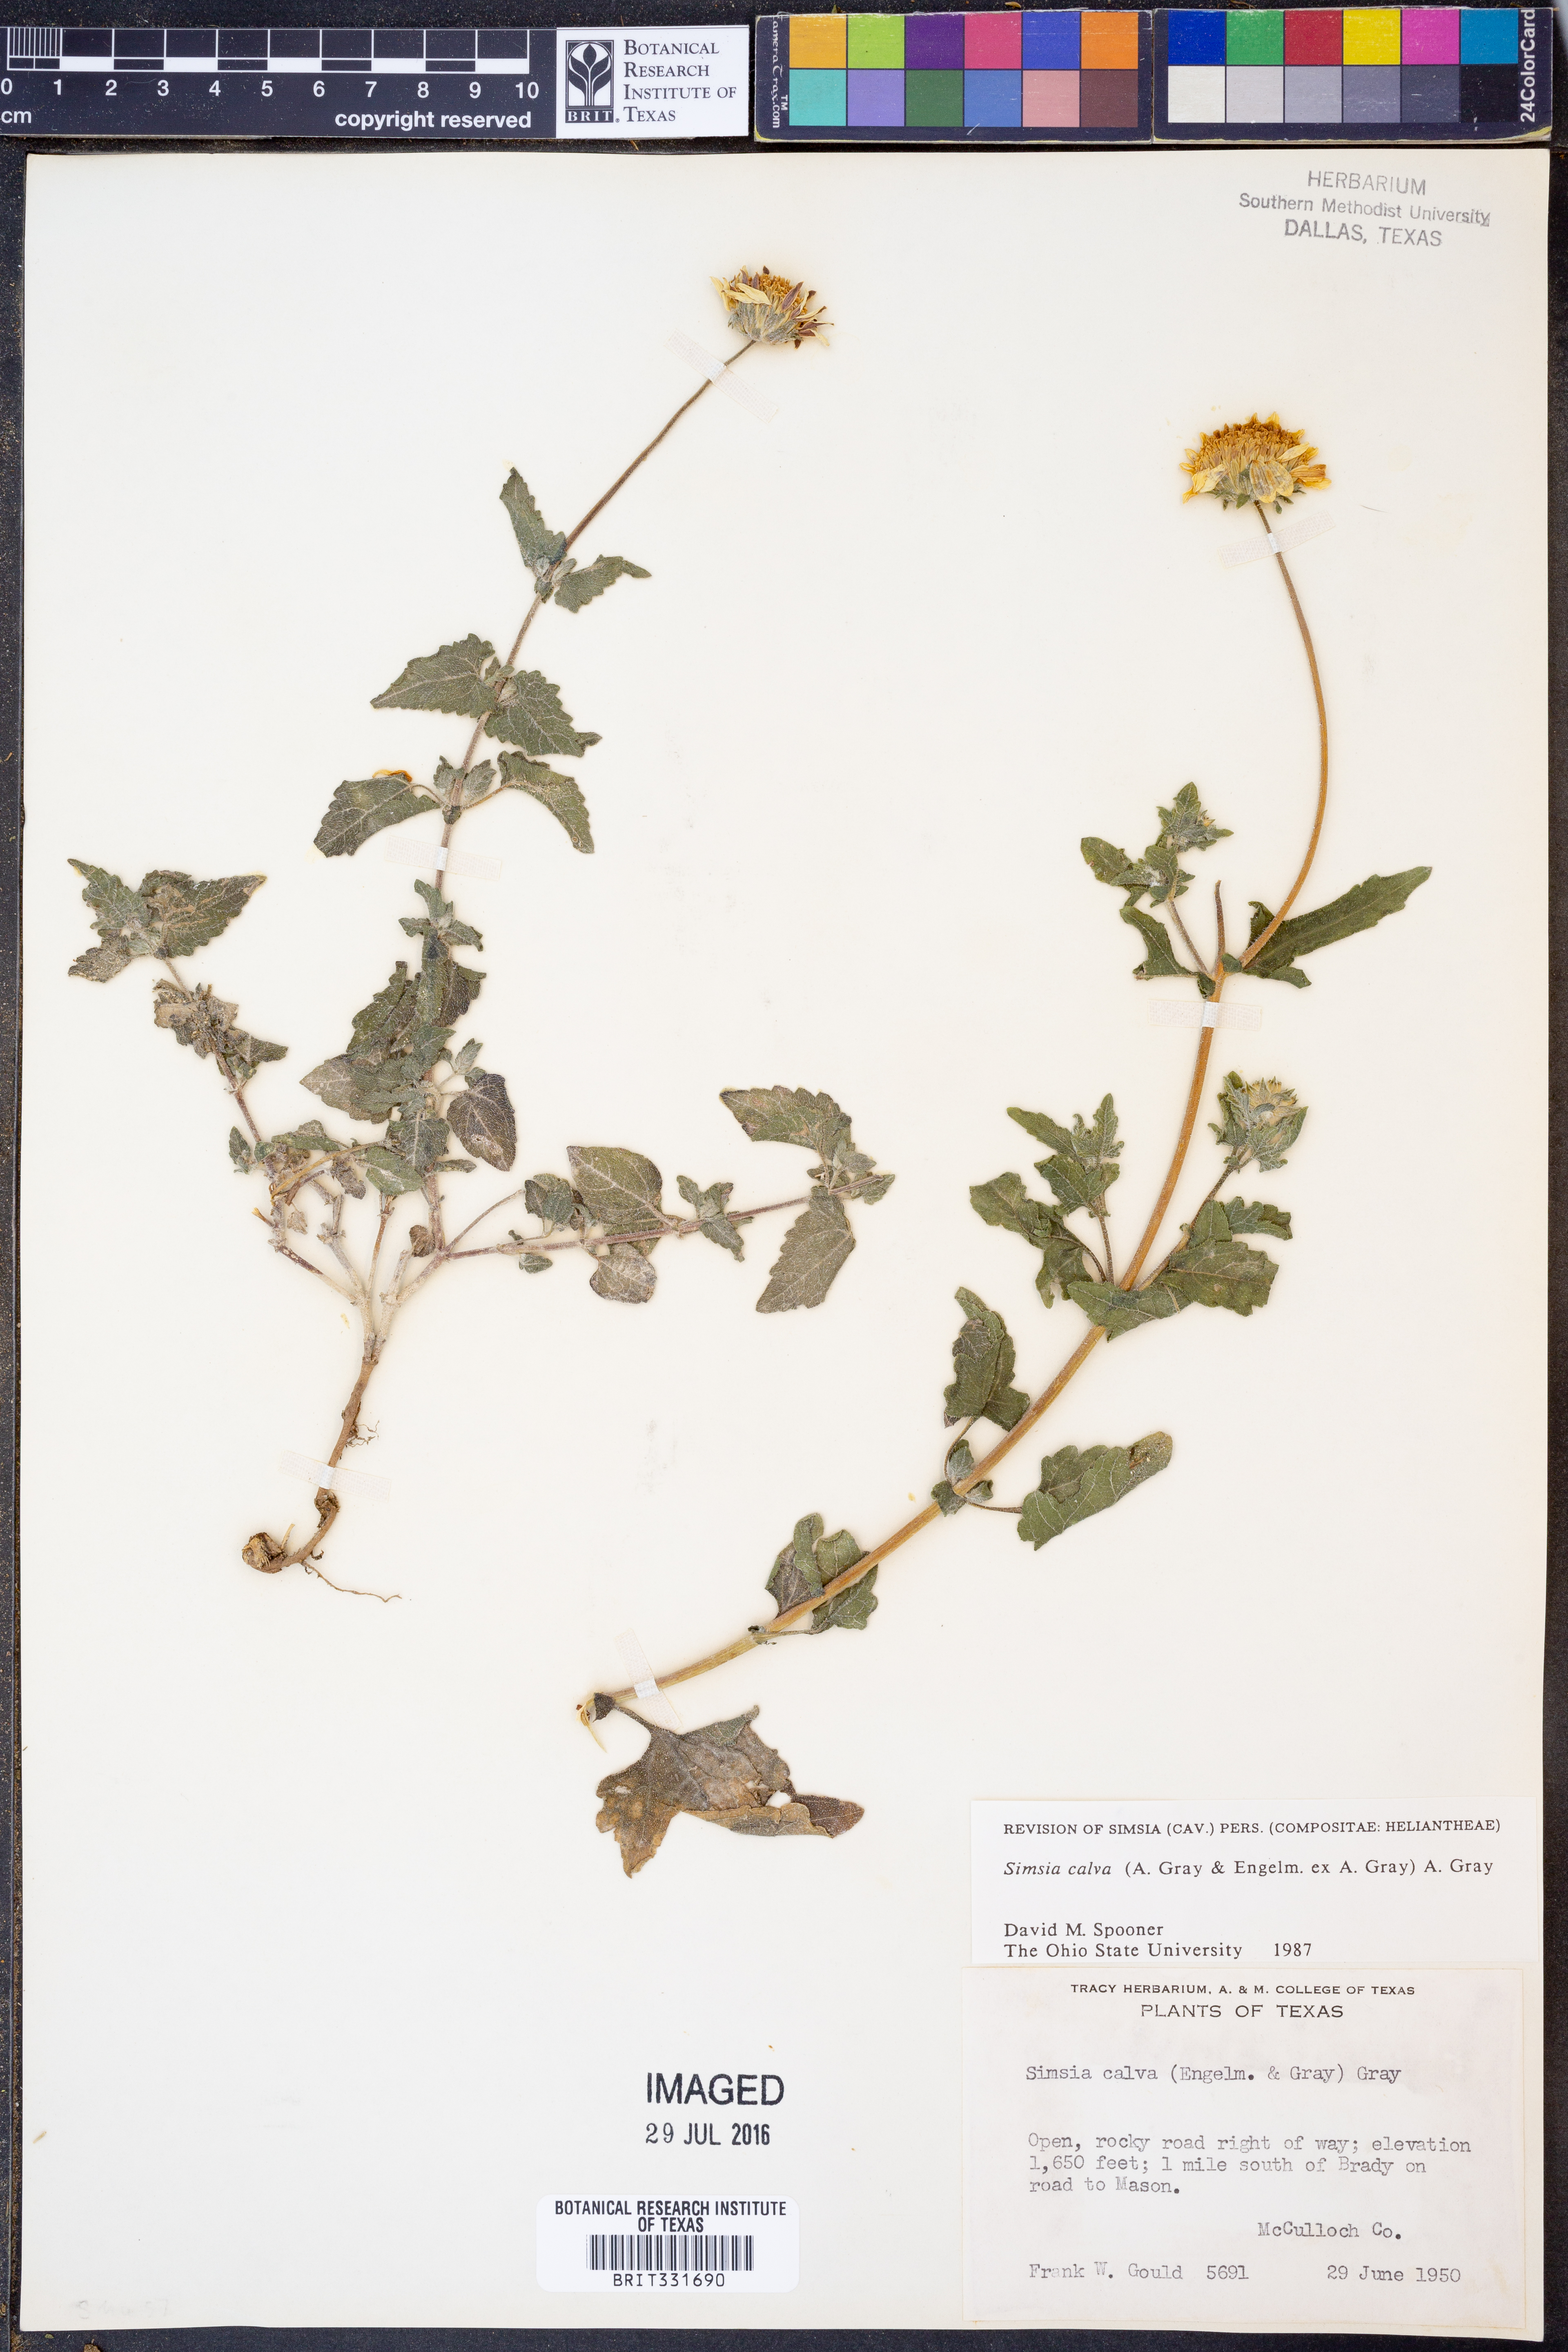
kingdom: Plantae
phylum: Tracheophyta
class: Magnoliopsida
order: Asterales
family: Asteraceae
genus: Simsia
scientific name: Simsia calva
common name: Awnless bush-sunflower
